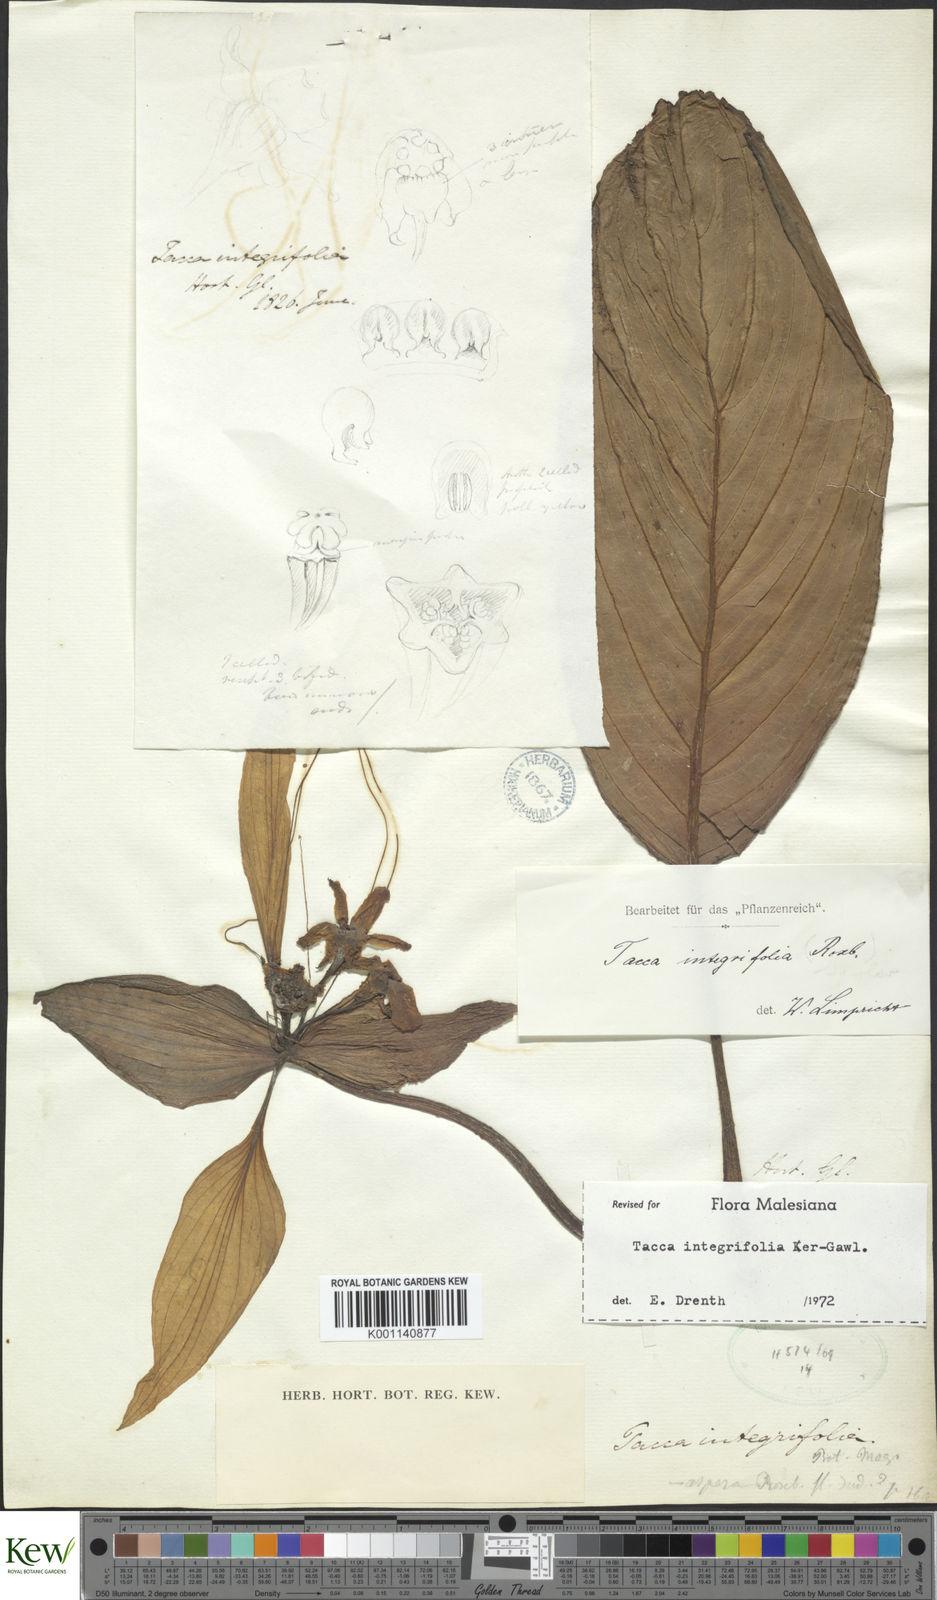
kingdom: Plantae
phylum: Tracheophyta
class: Liliopsida
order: Dioscoreales
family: Dioscoreaceae
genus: Tacca
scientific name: Tacca integrifolia
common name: Batplant
